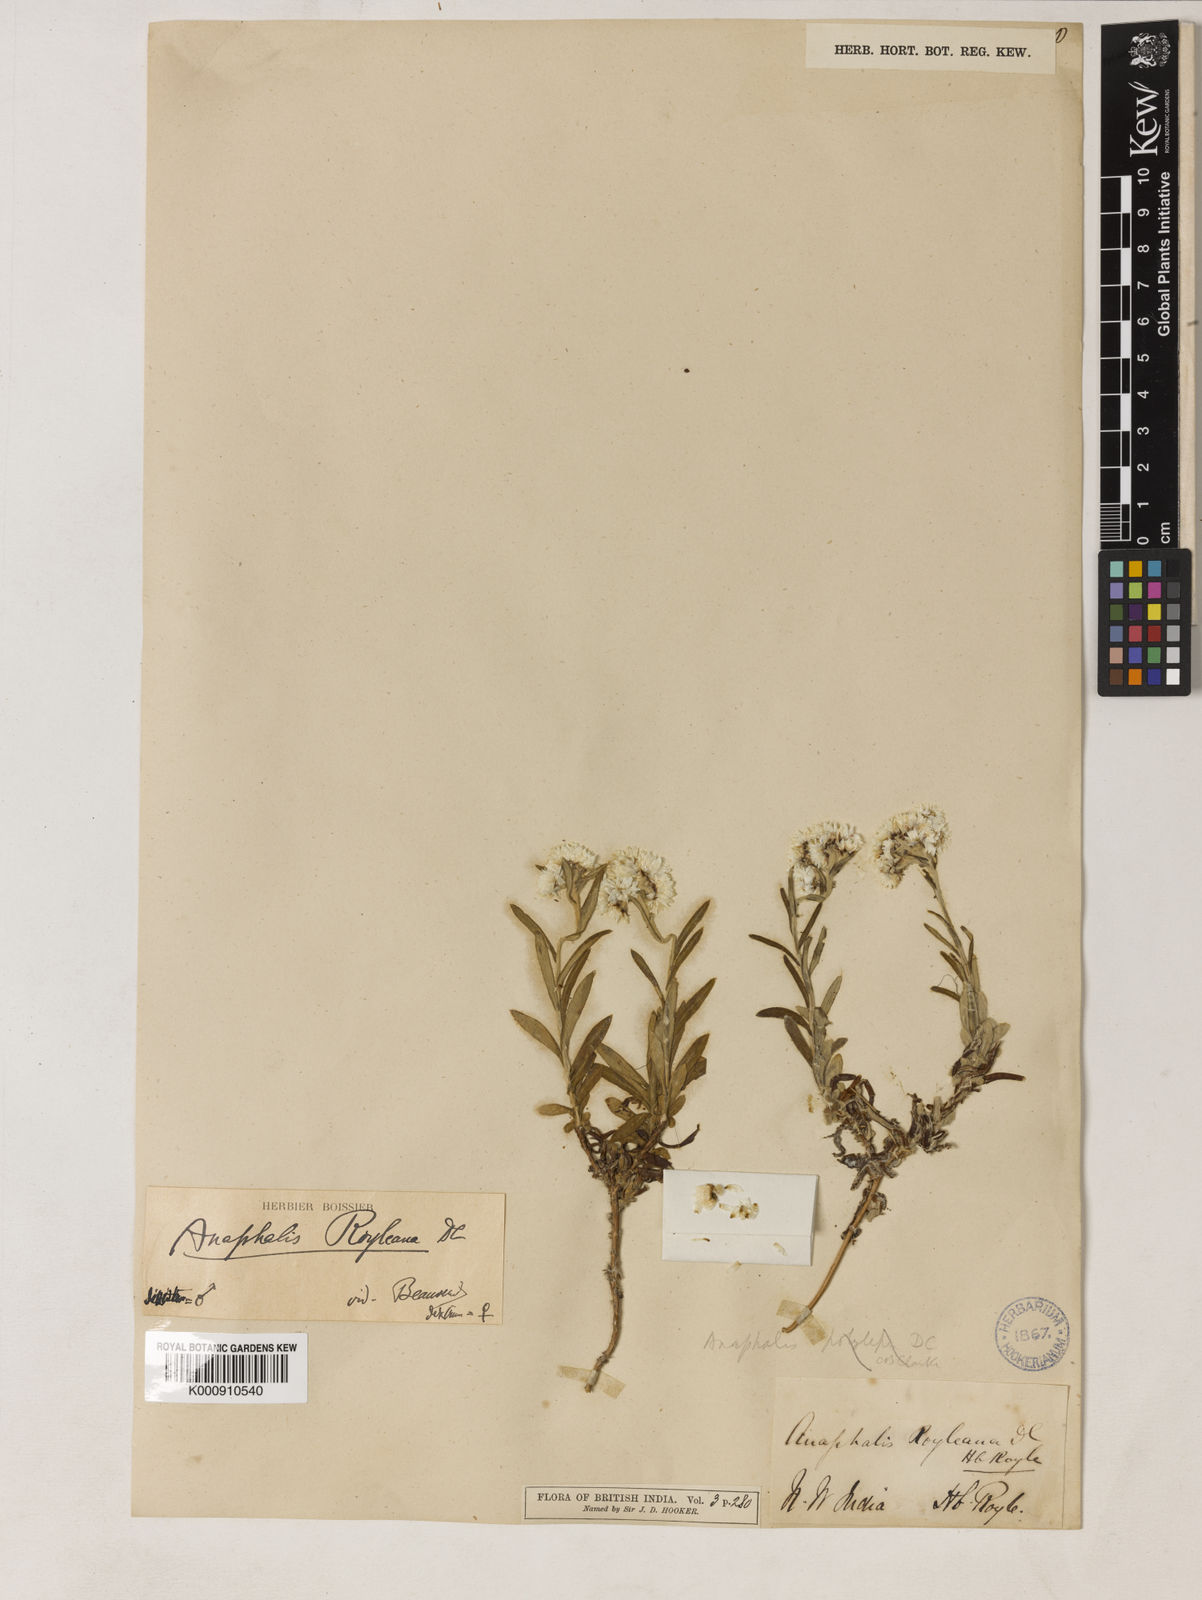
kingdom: Plantae
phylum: Tracheophyta
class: Magnoliopsida
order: Asterales
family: Asteraceae
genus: Anaphalis
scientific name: Anaphalis royleana
